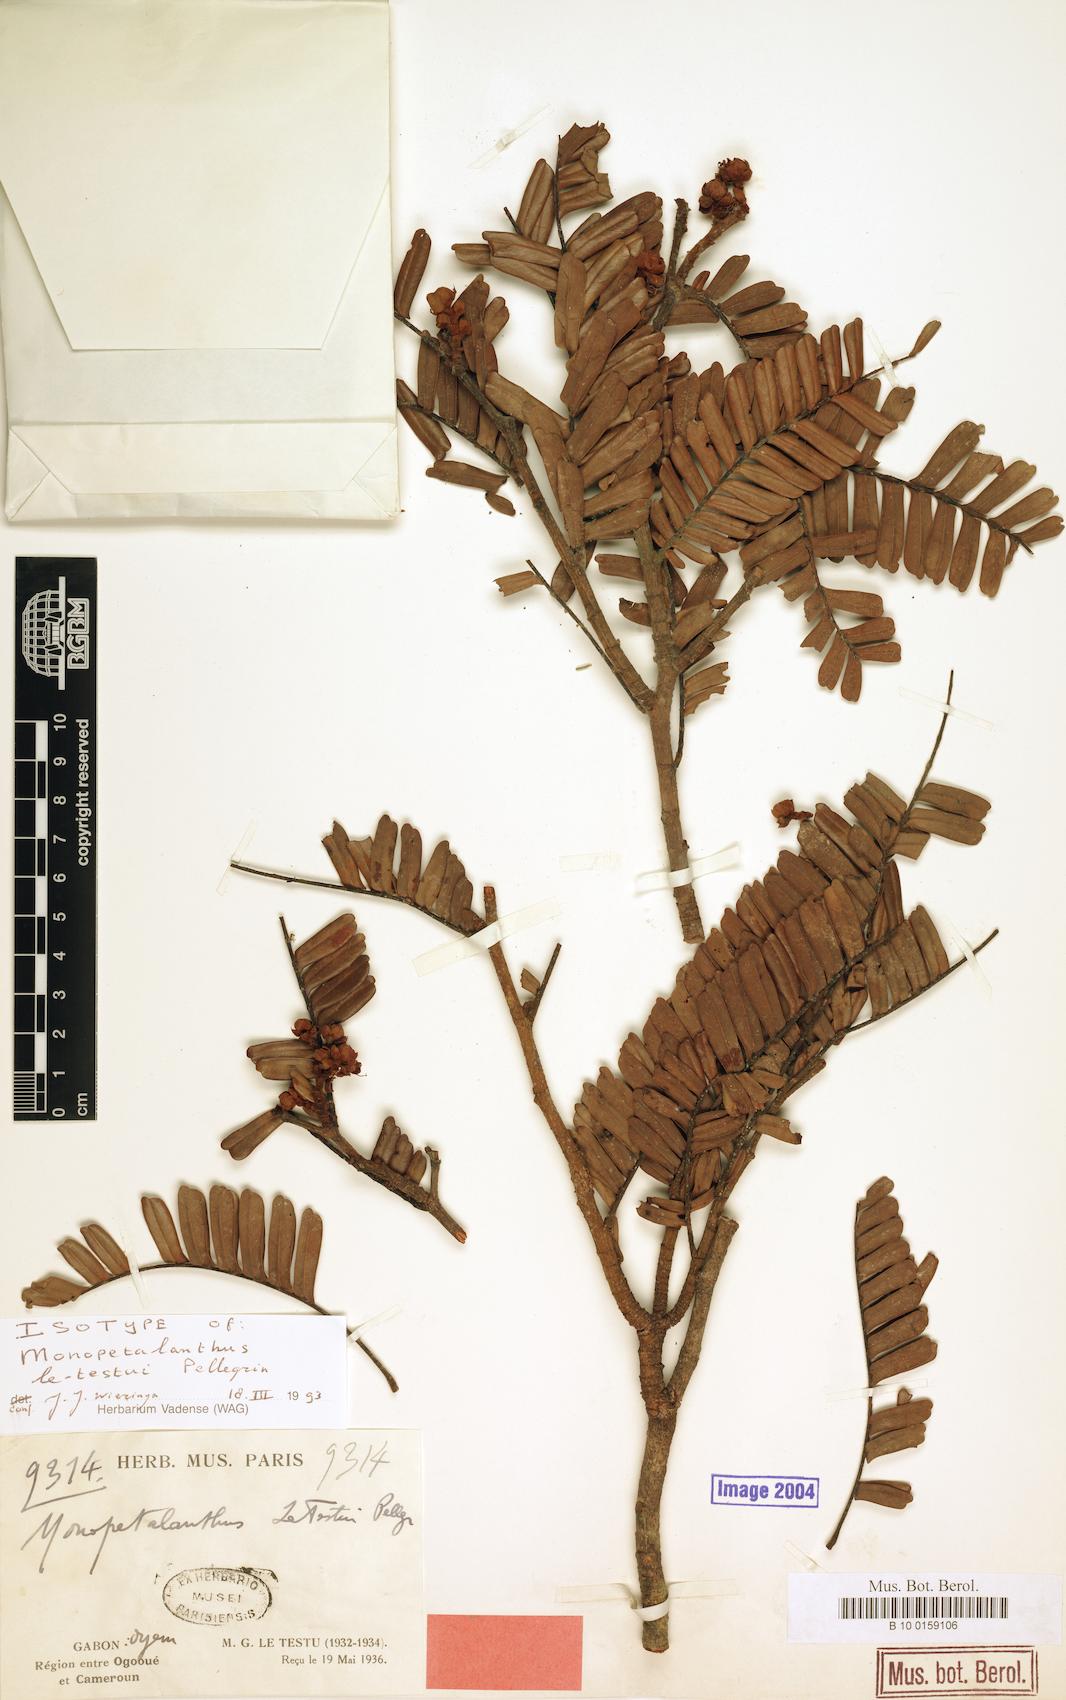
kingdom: Plantae
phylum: Tracheophyta
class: Magnoliopsida
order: Fabales
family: Fabaceae
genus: Bikinia
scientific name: Bikinia letestui
